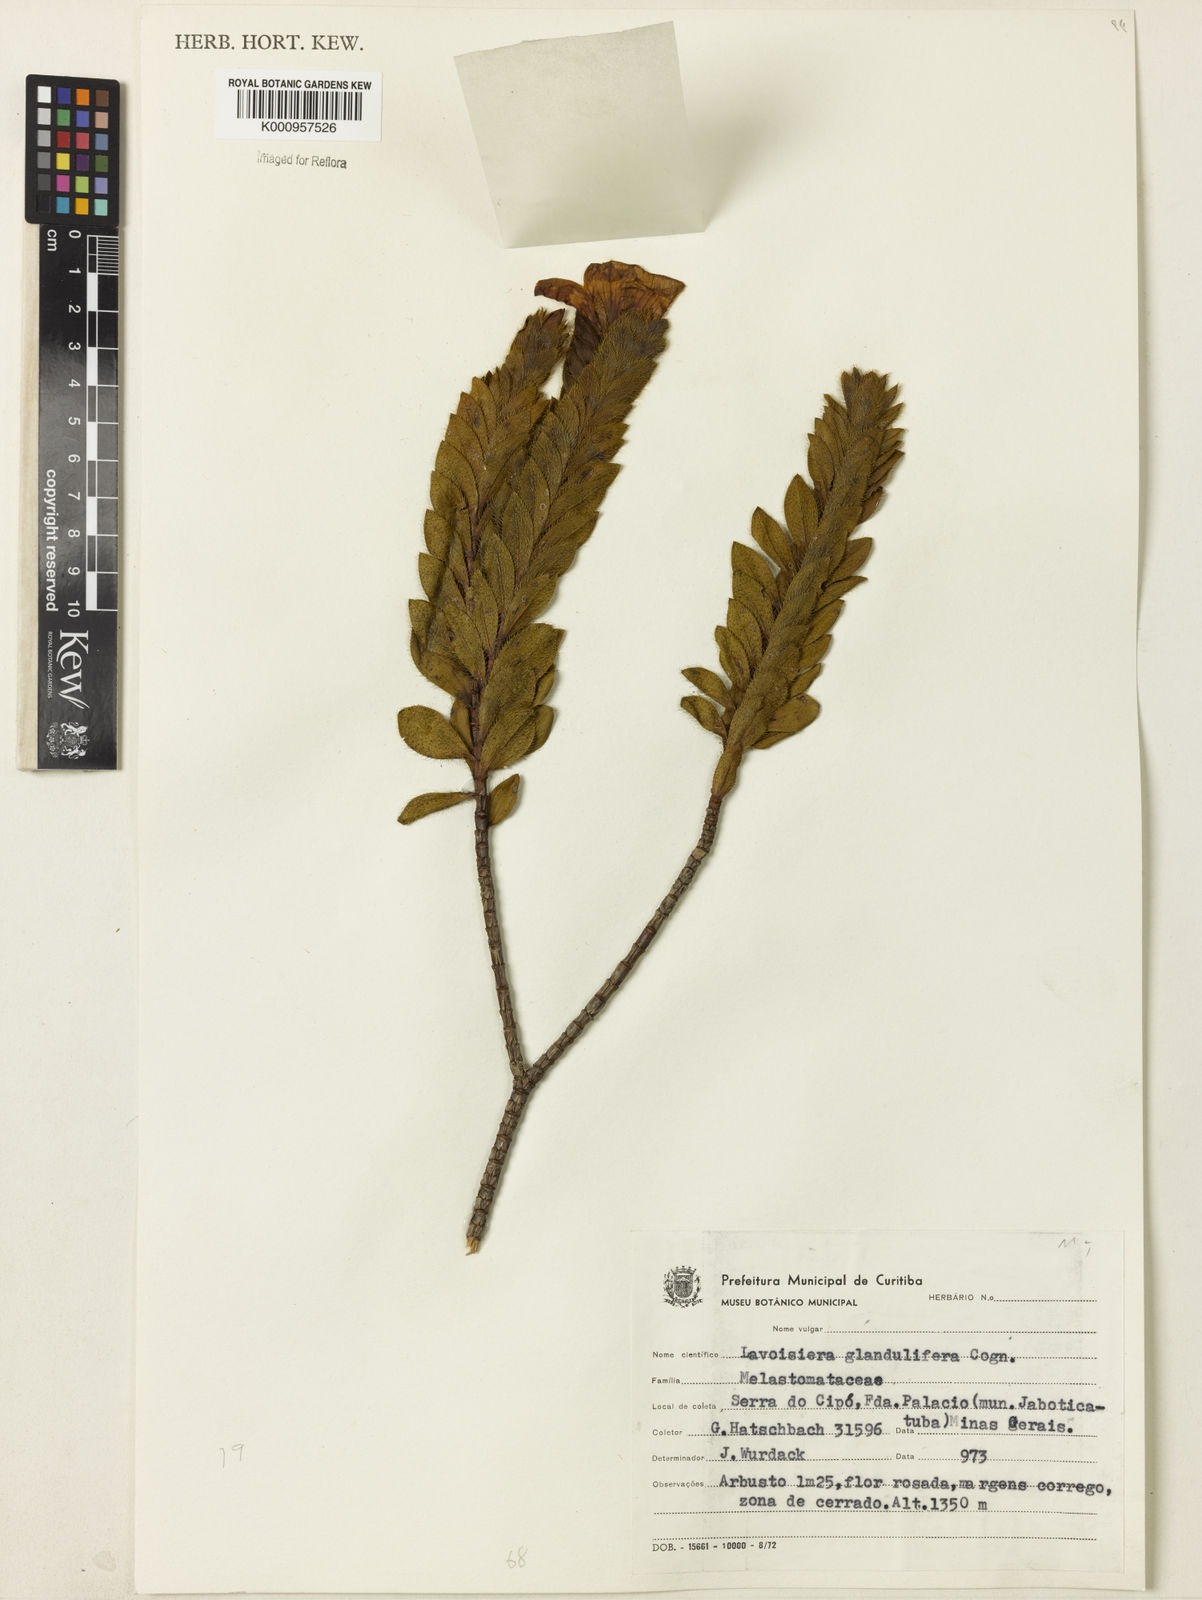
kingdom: Plantae
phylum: Tracheophyta
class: Magnoliopsida
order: Myrtales
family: Melastomataceae
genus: Microlicia
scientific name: Microlicia glandulifolia
